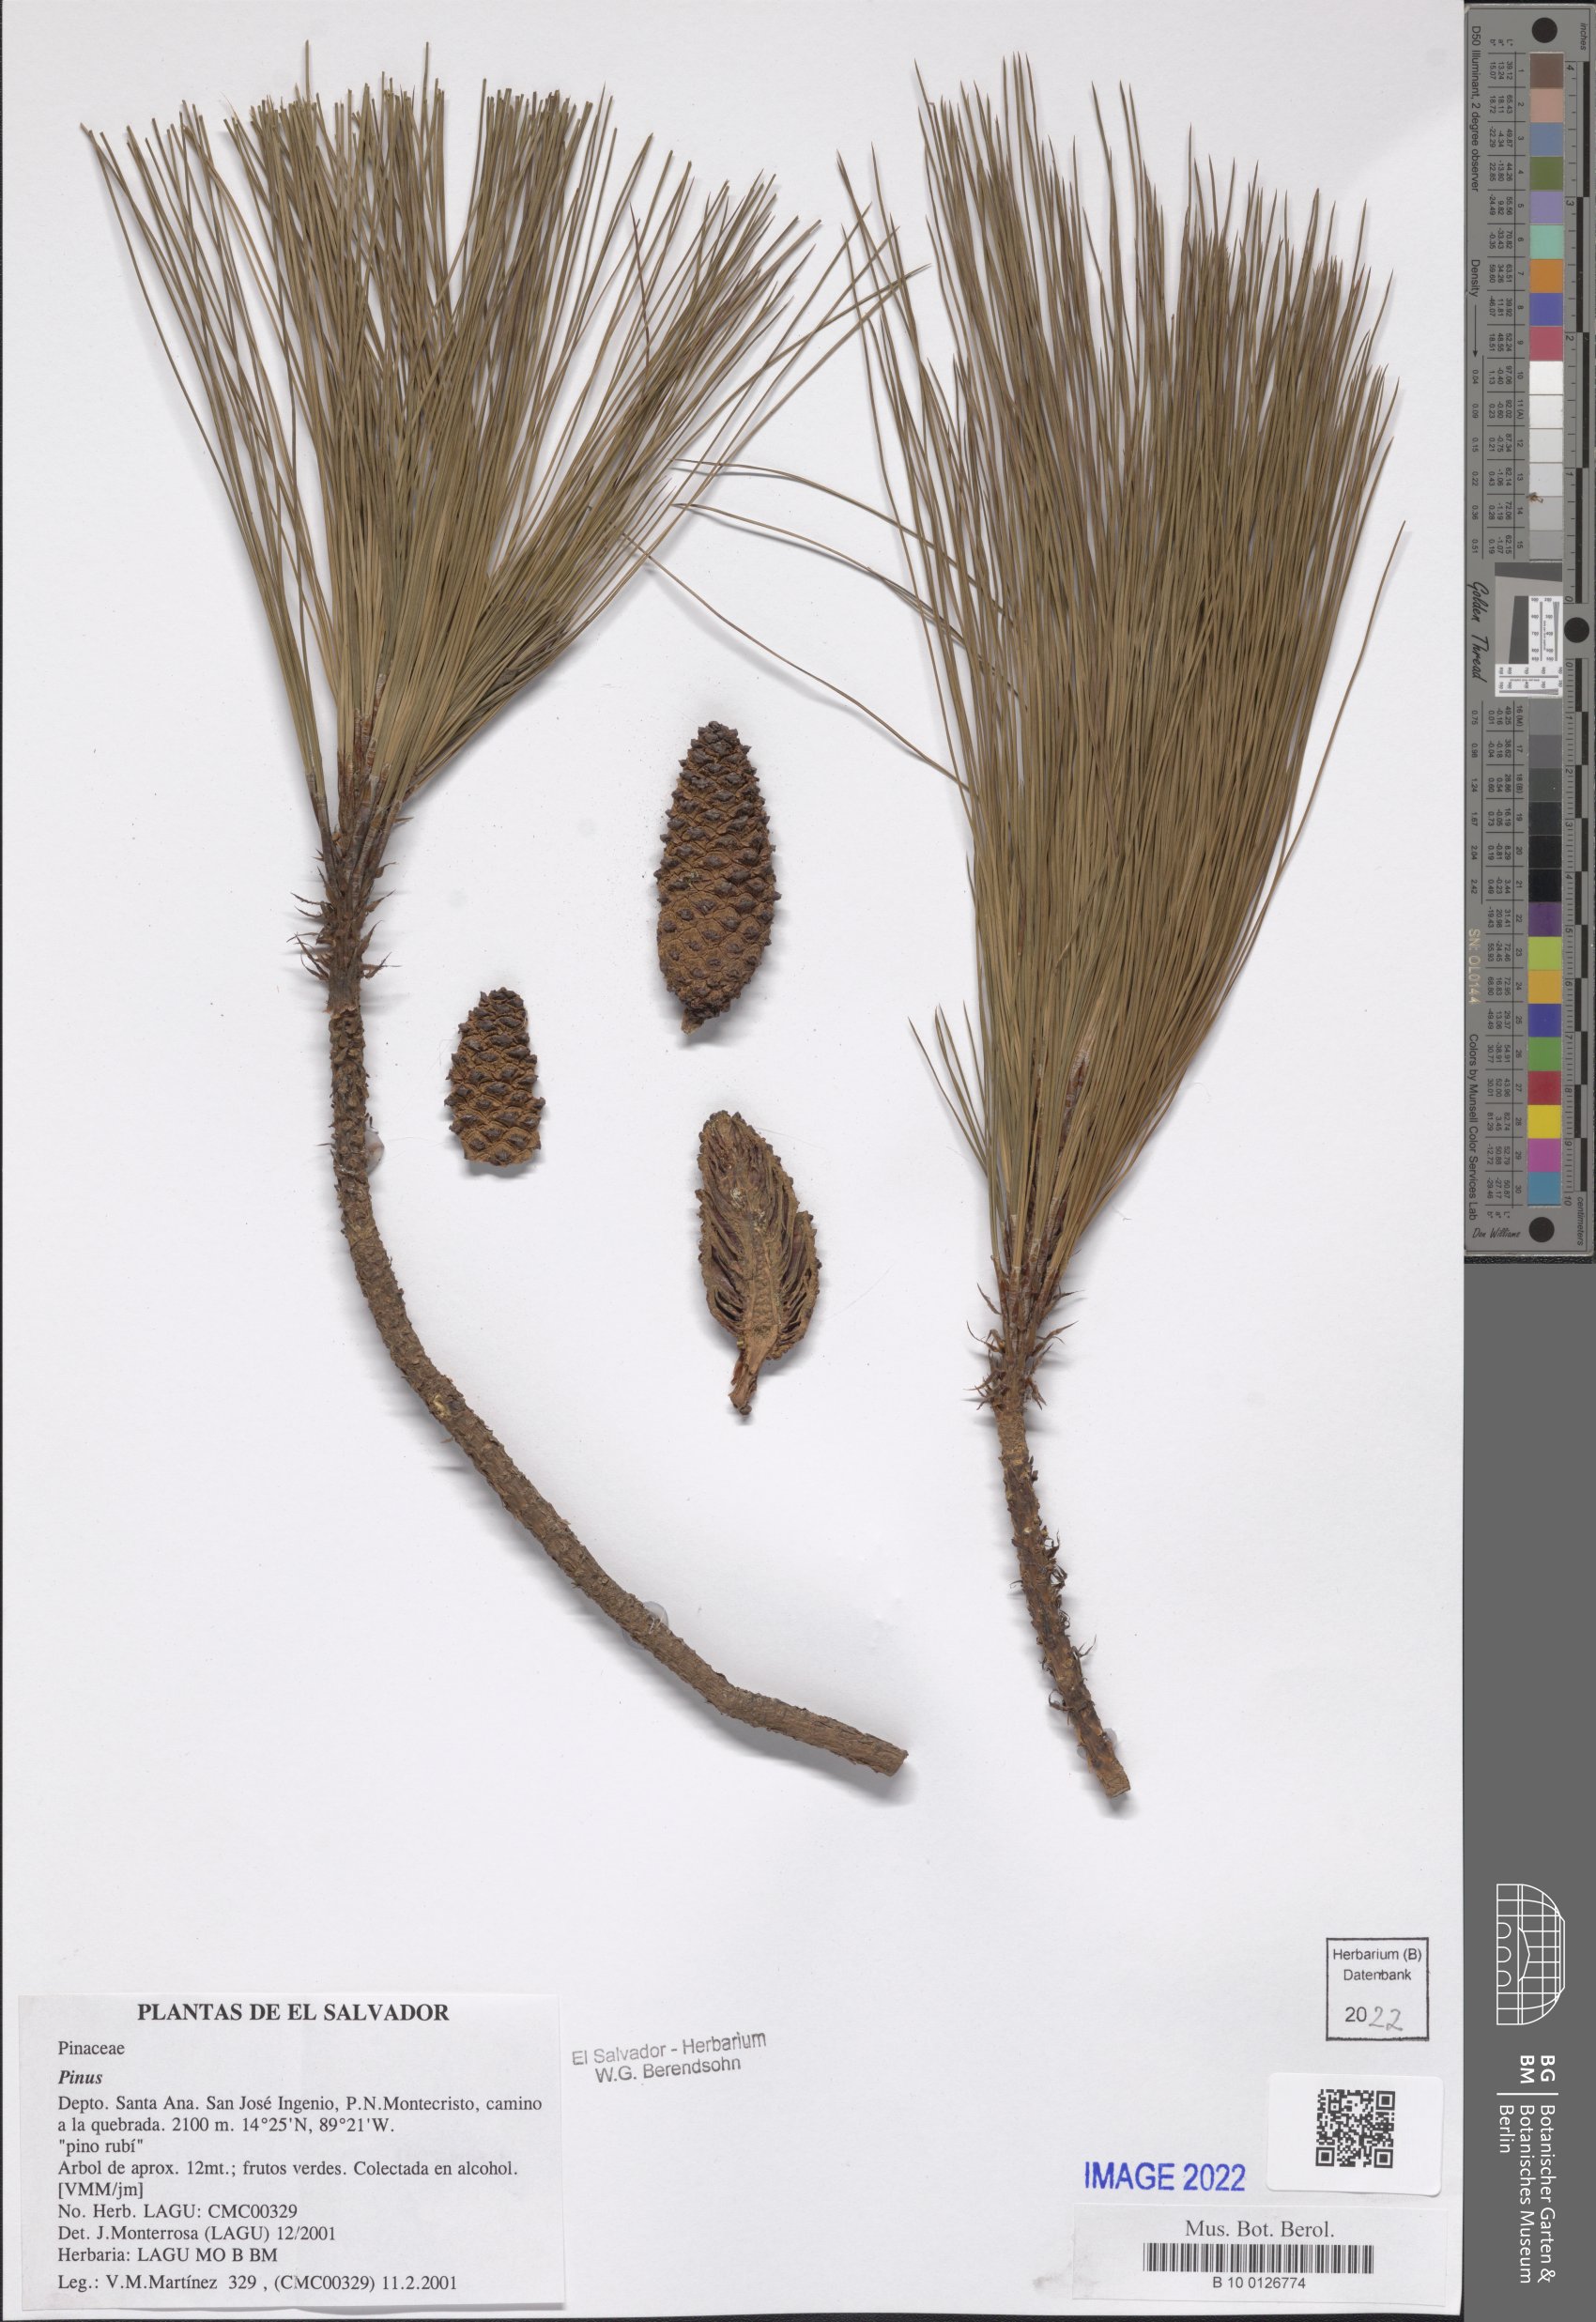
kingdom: Plantae
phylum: Tracheophyta
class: Pinopsida
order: Pinales
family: Pinaceae
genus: Pinus
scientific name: Pinus
